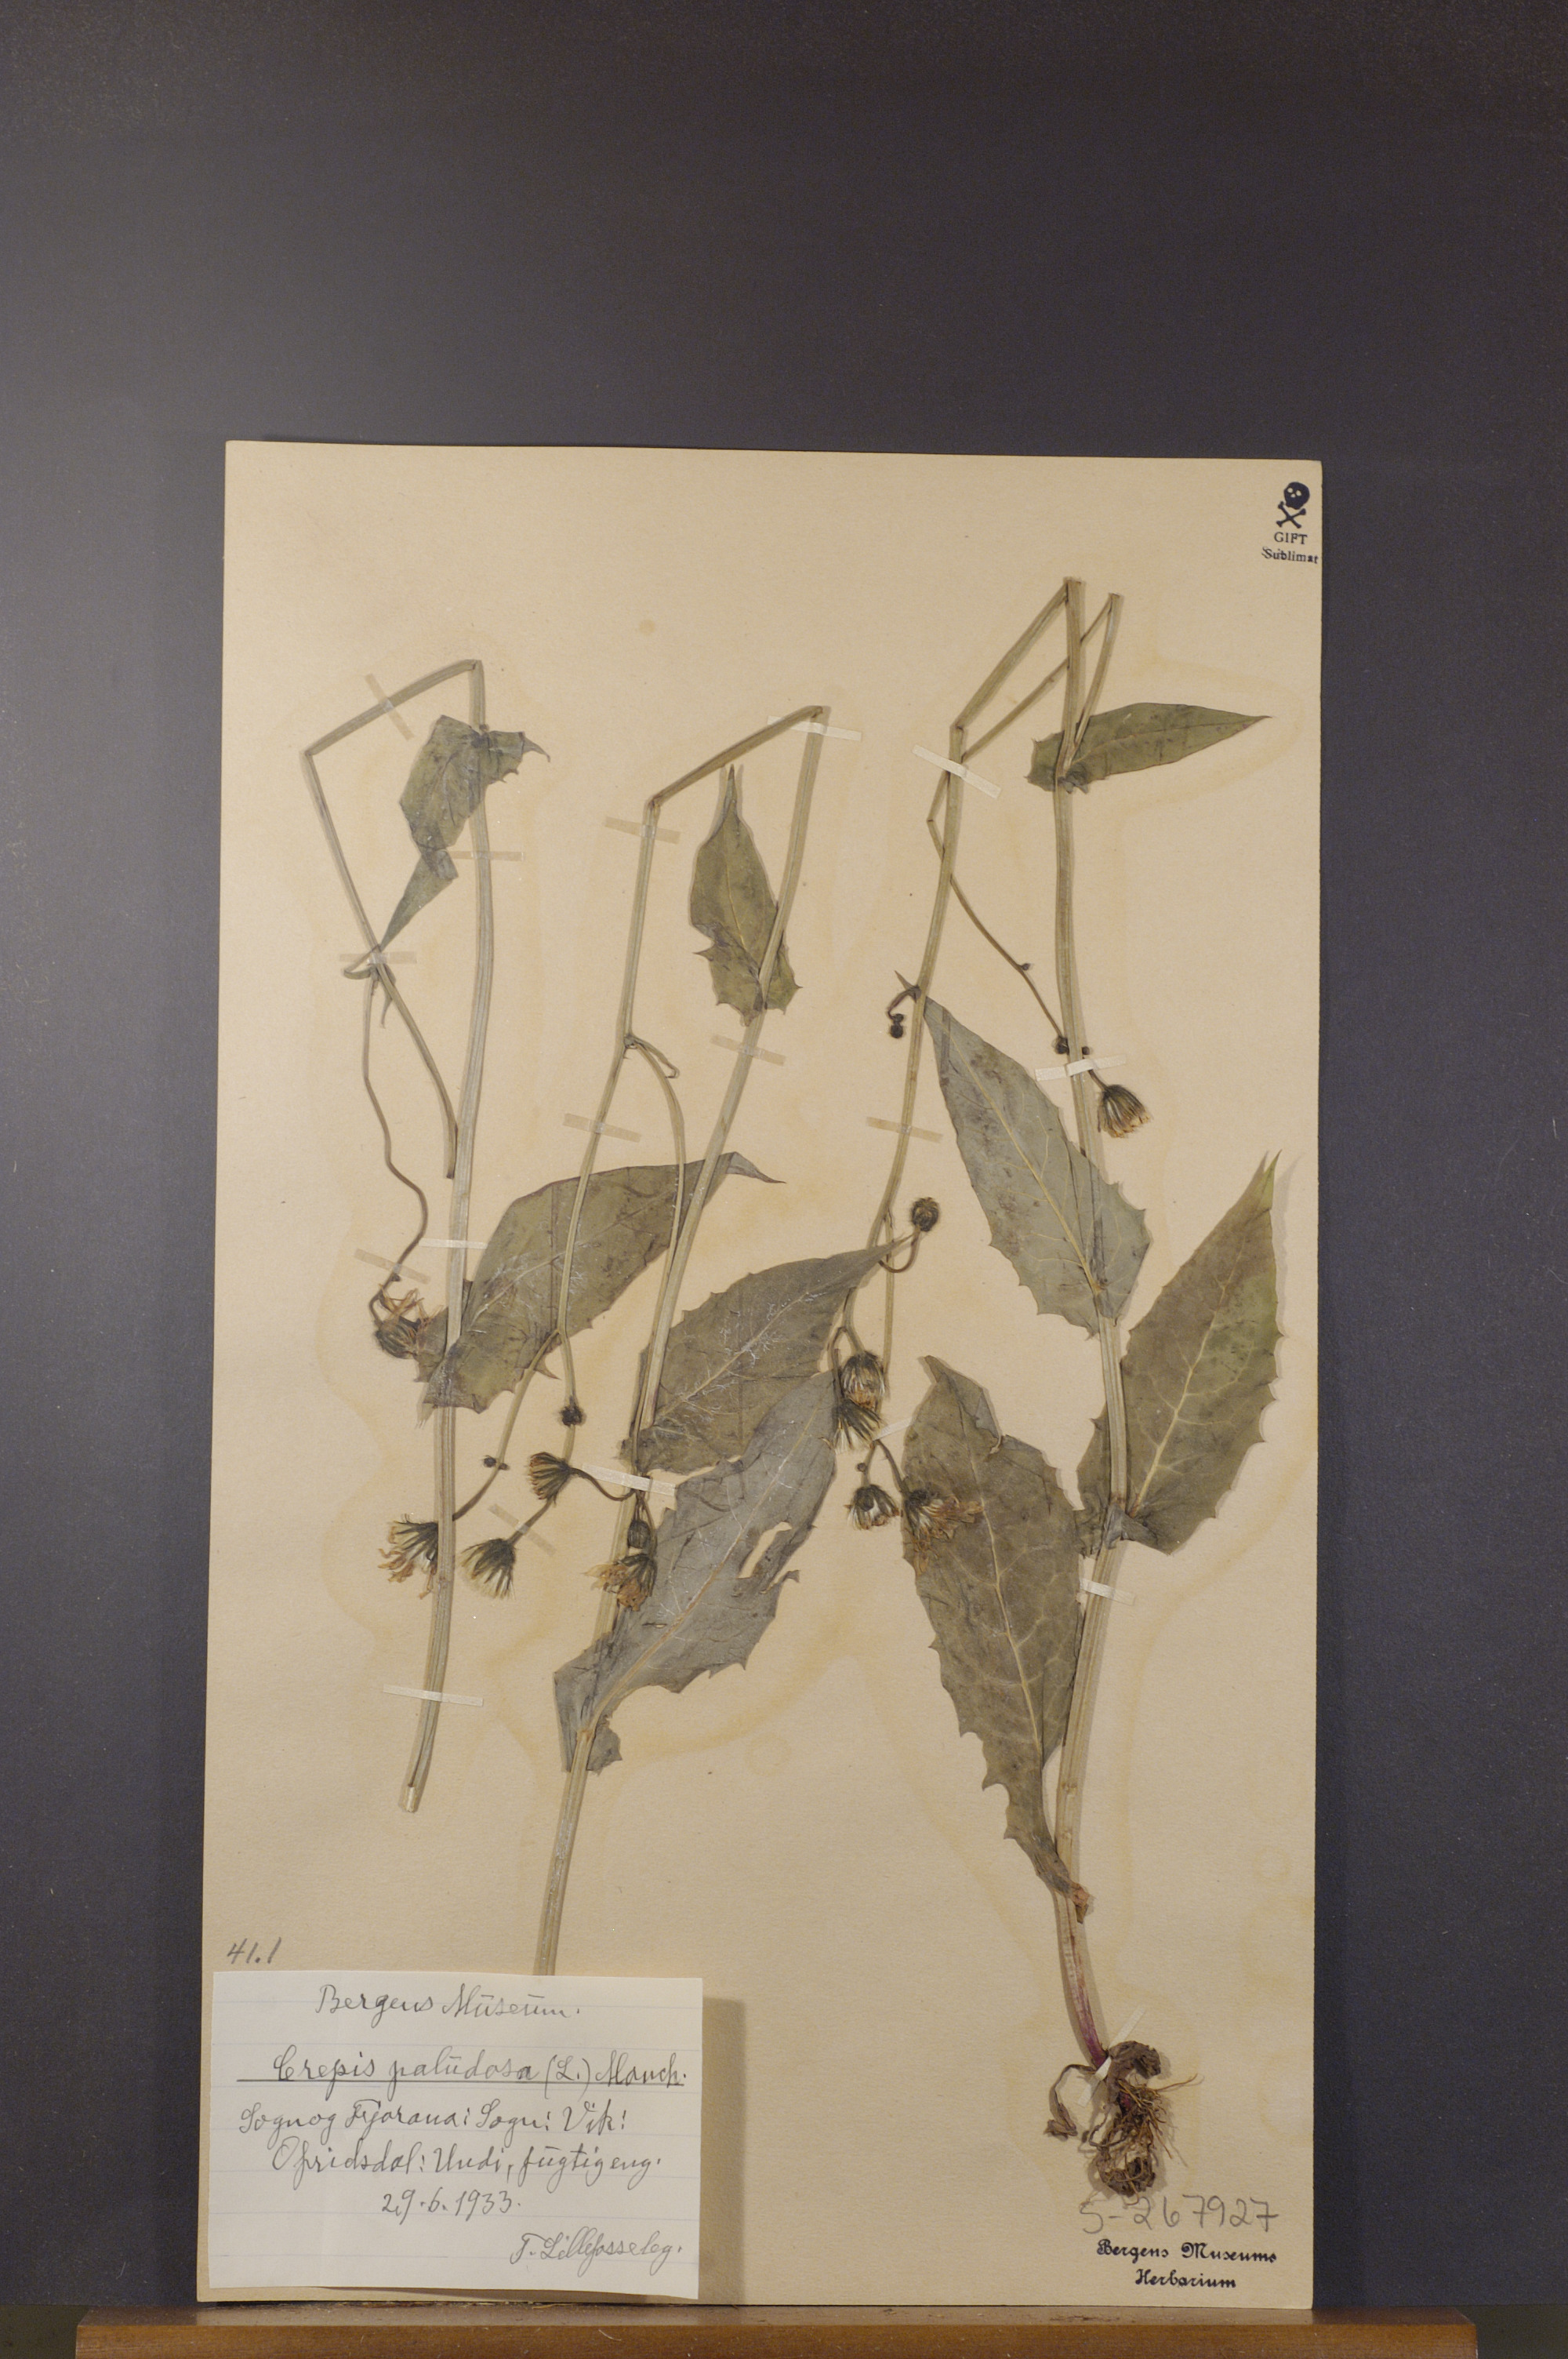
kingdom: Plantae
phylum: Tracheophyta
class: Magnoliopsida
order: Asterales
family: Asteraceae
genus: Crepis
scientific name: Crepis paludosa
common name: Marsh hawk's-beard
